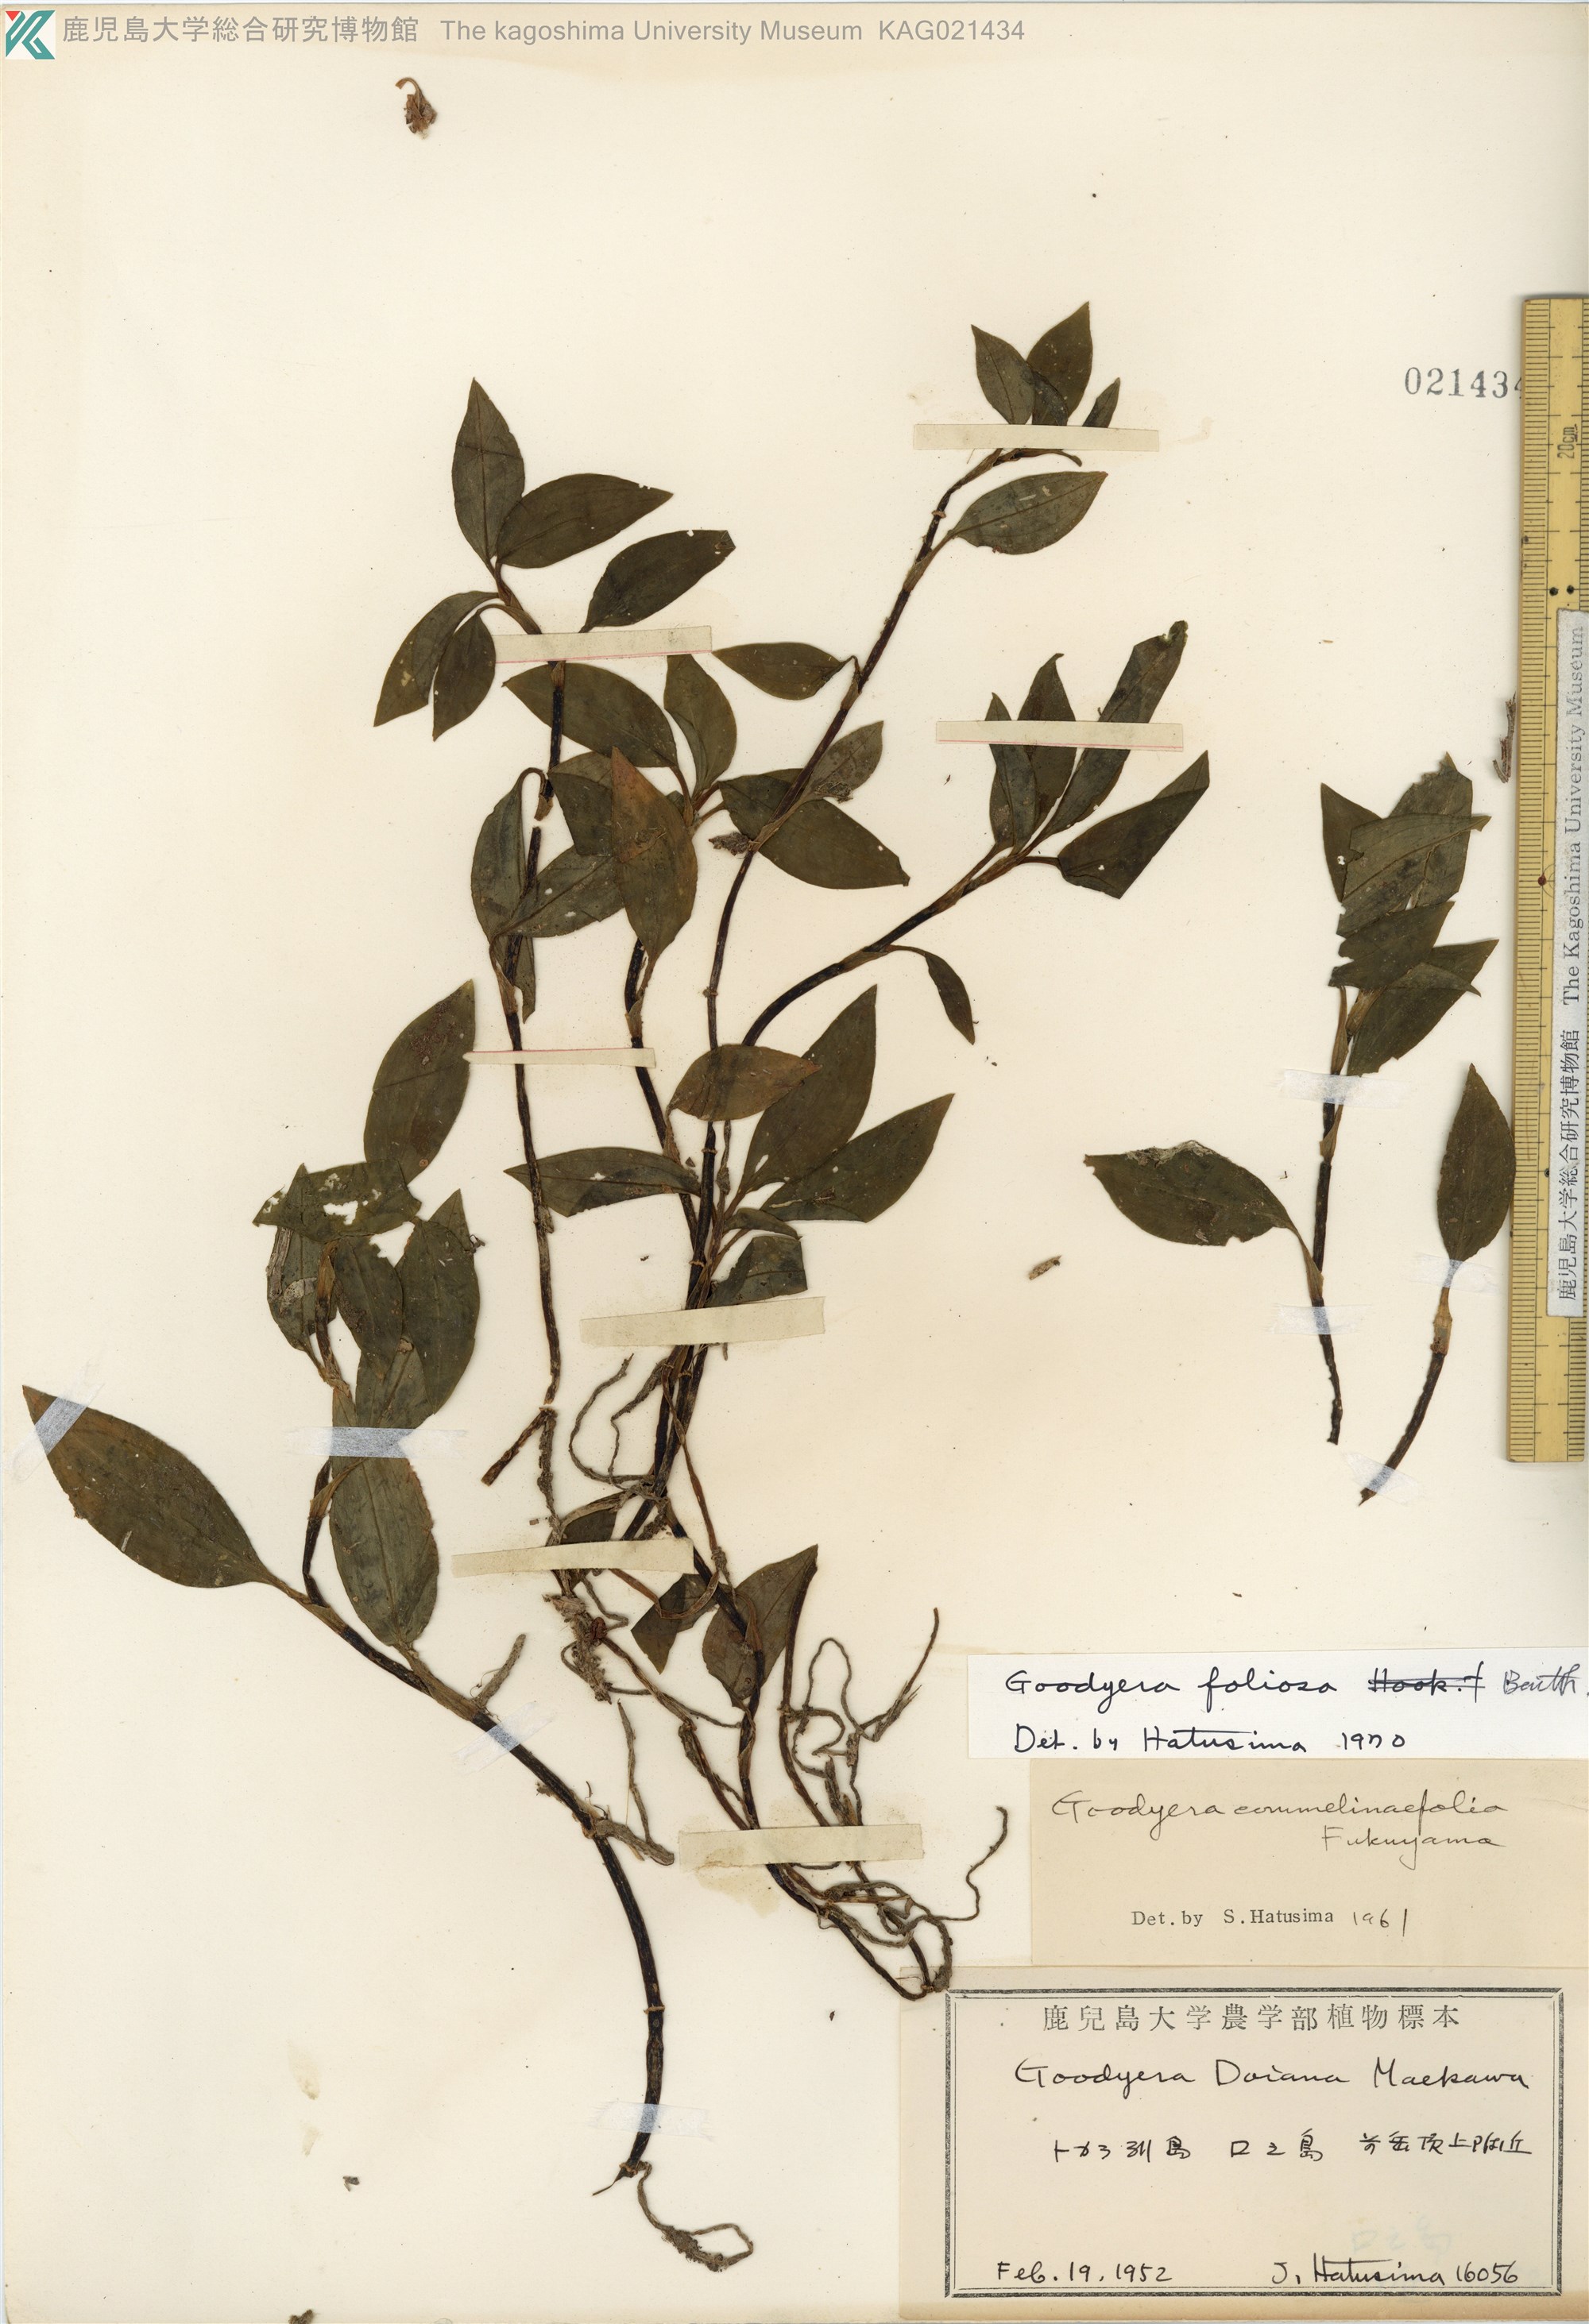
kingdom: Plantae
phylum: Tracheophyta
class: Liliopsida
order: Asparagales
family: Orchidaceae
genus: Goodyera
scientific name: Goodyera foliosa
